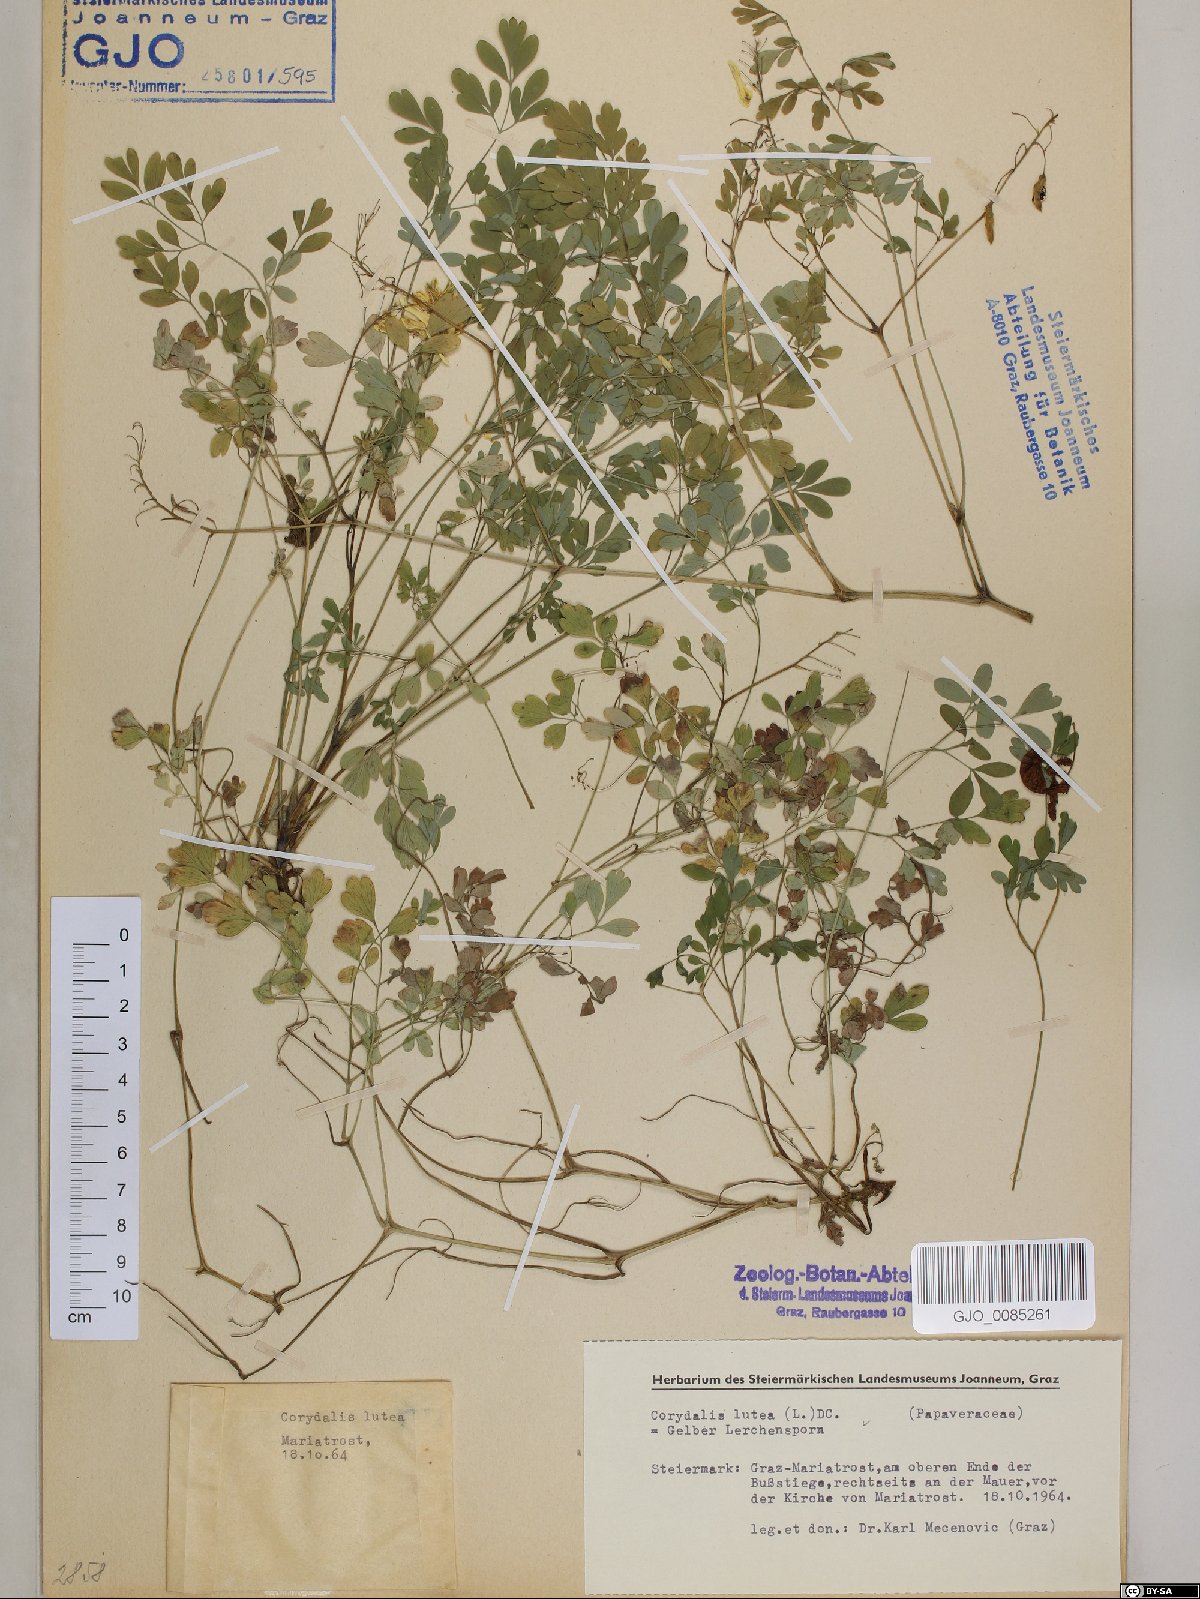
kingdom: Plantae
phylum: Tracheophyta
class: Magnoliopsida
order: Ranunculales
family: Papaveraceae
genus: Pseudofumaria
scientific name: Pseudofumaria lutea
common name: Yellow corydalis
